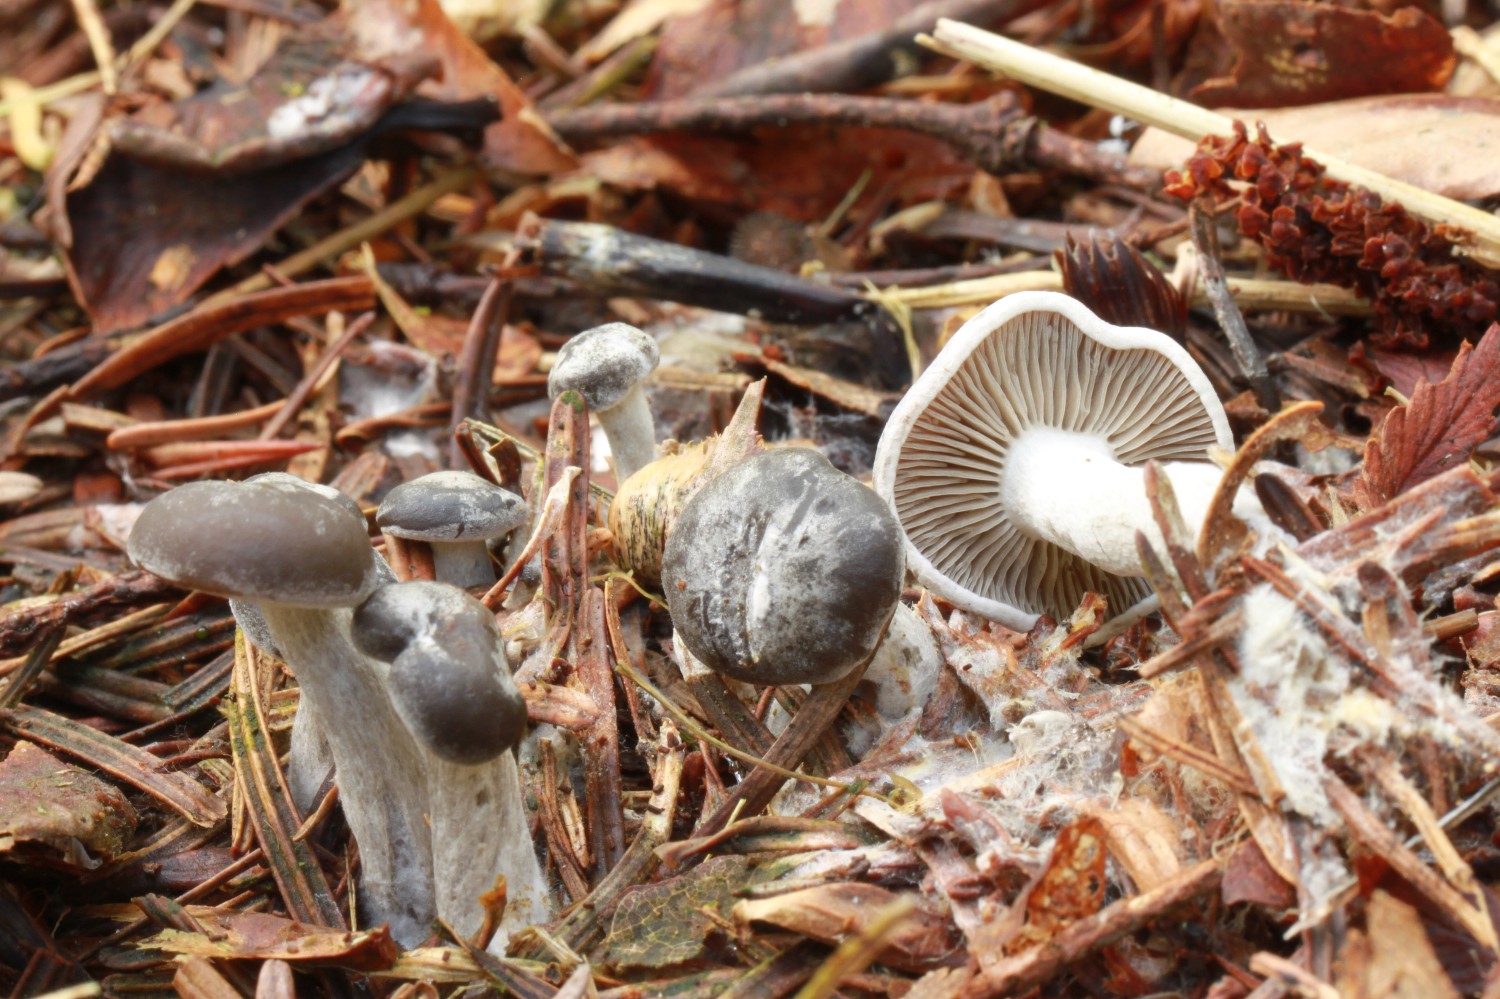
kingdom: Fungi
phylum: Basidiomycota
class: Agaricomycetes
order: Agaricales
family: Tricholomataceae
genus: Clitocybe
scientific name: Clitocybe metachroa
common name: grå tragthat
